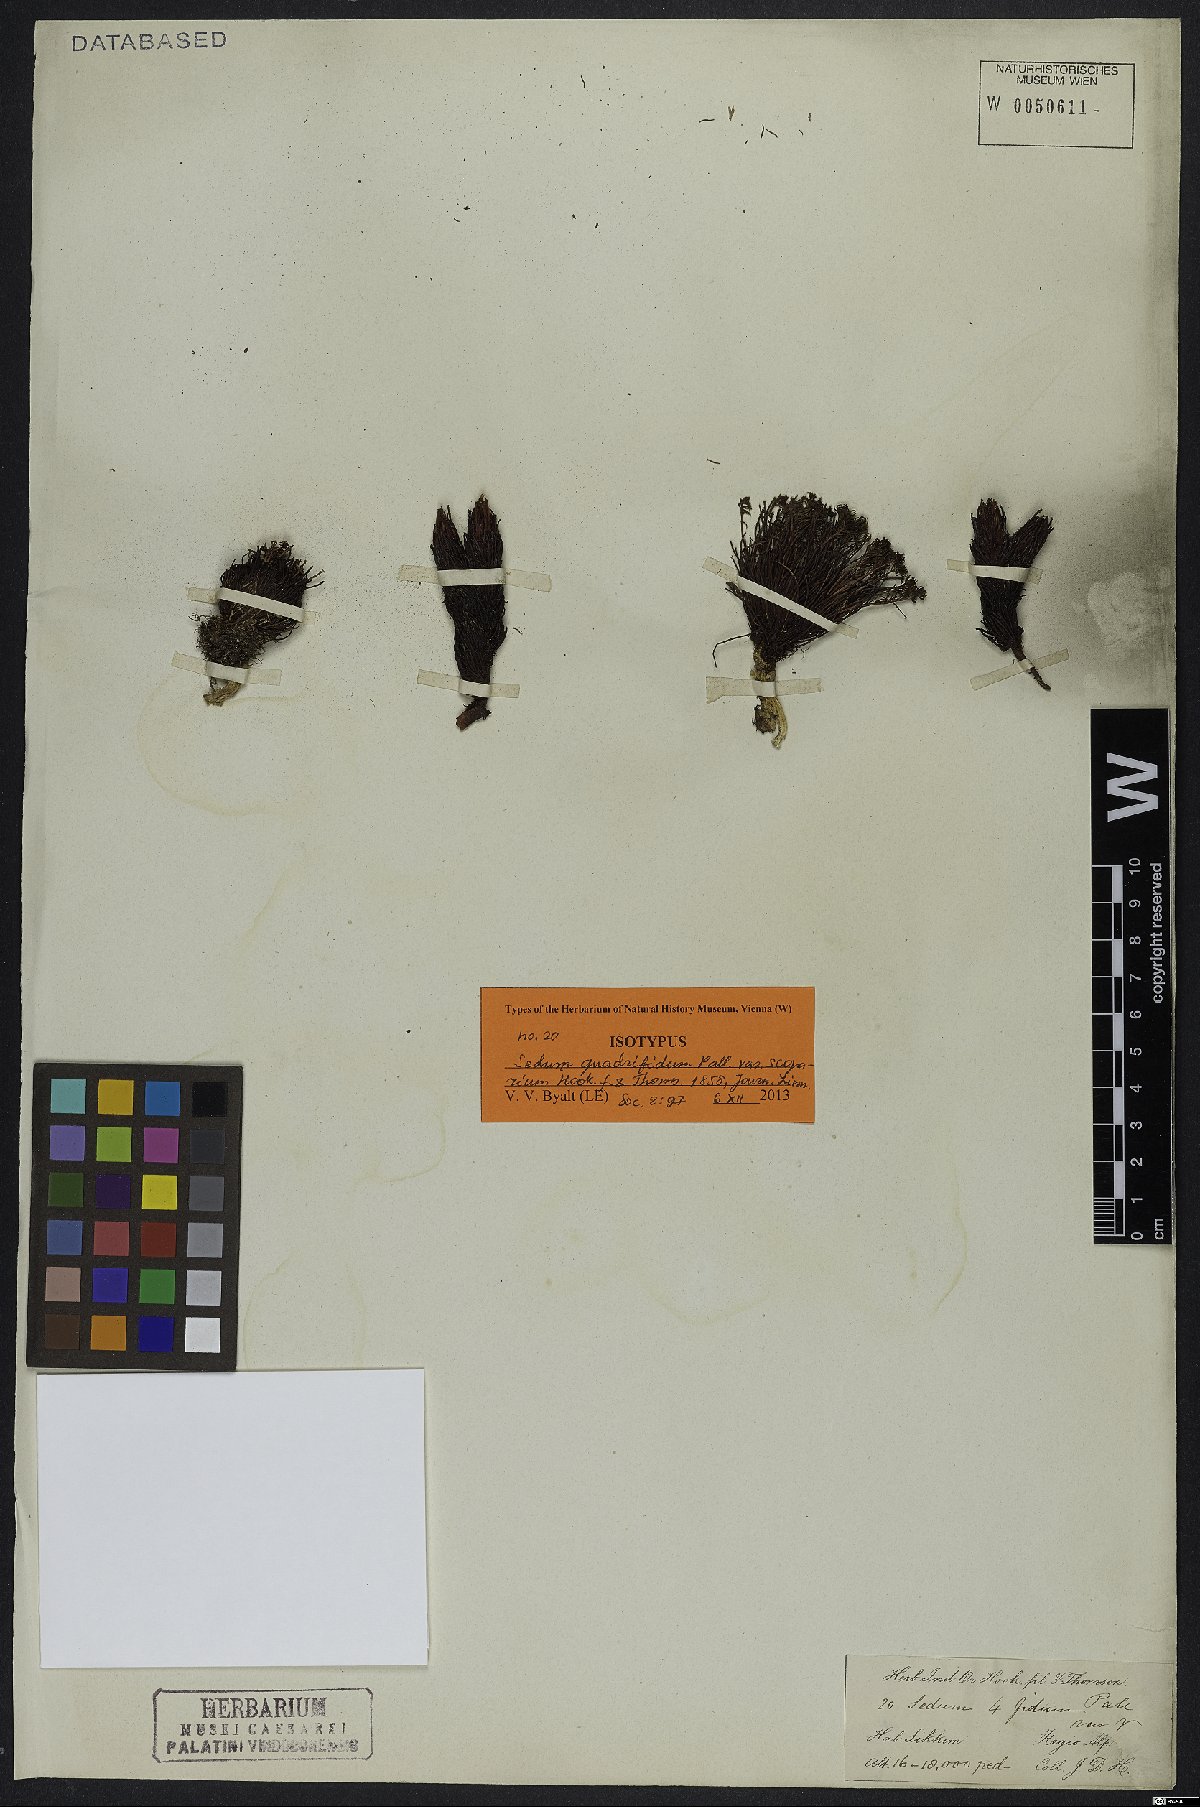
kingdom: Plantae
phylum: Tracheophyta
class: Magnoliopsida
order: Saxifragales
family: Crassulaceae
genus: Rhodiola
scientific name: Rhodiola quadrifida
